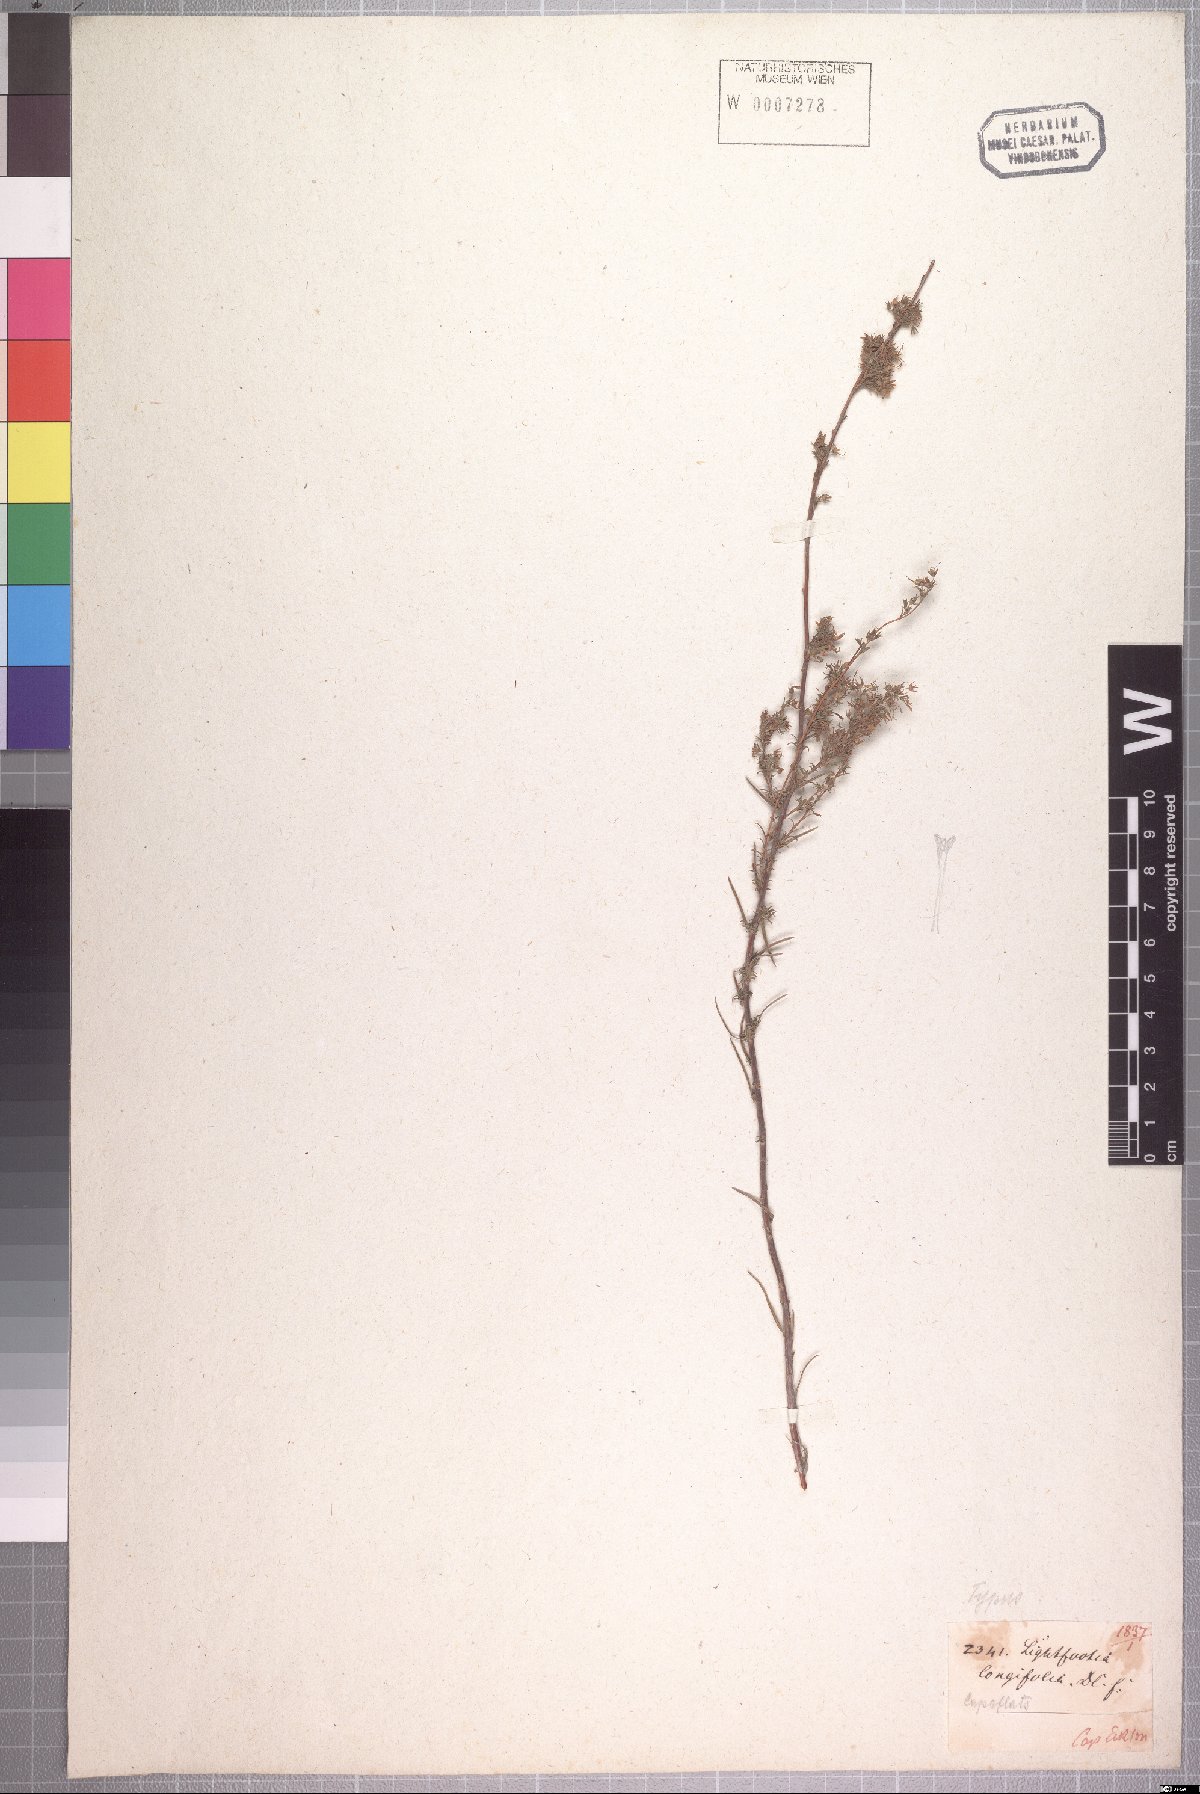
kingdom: Plantae
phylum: Tracheophyta
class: Magnoliopsida
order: Asterales
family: Campanulaceae
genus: Wahlenbergia
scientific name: Wahlenbergia longifolia
